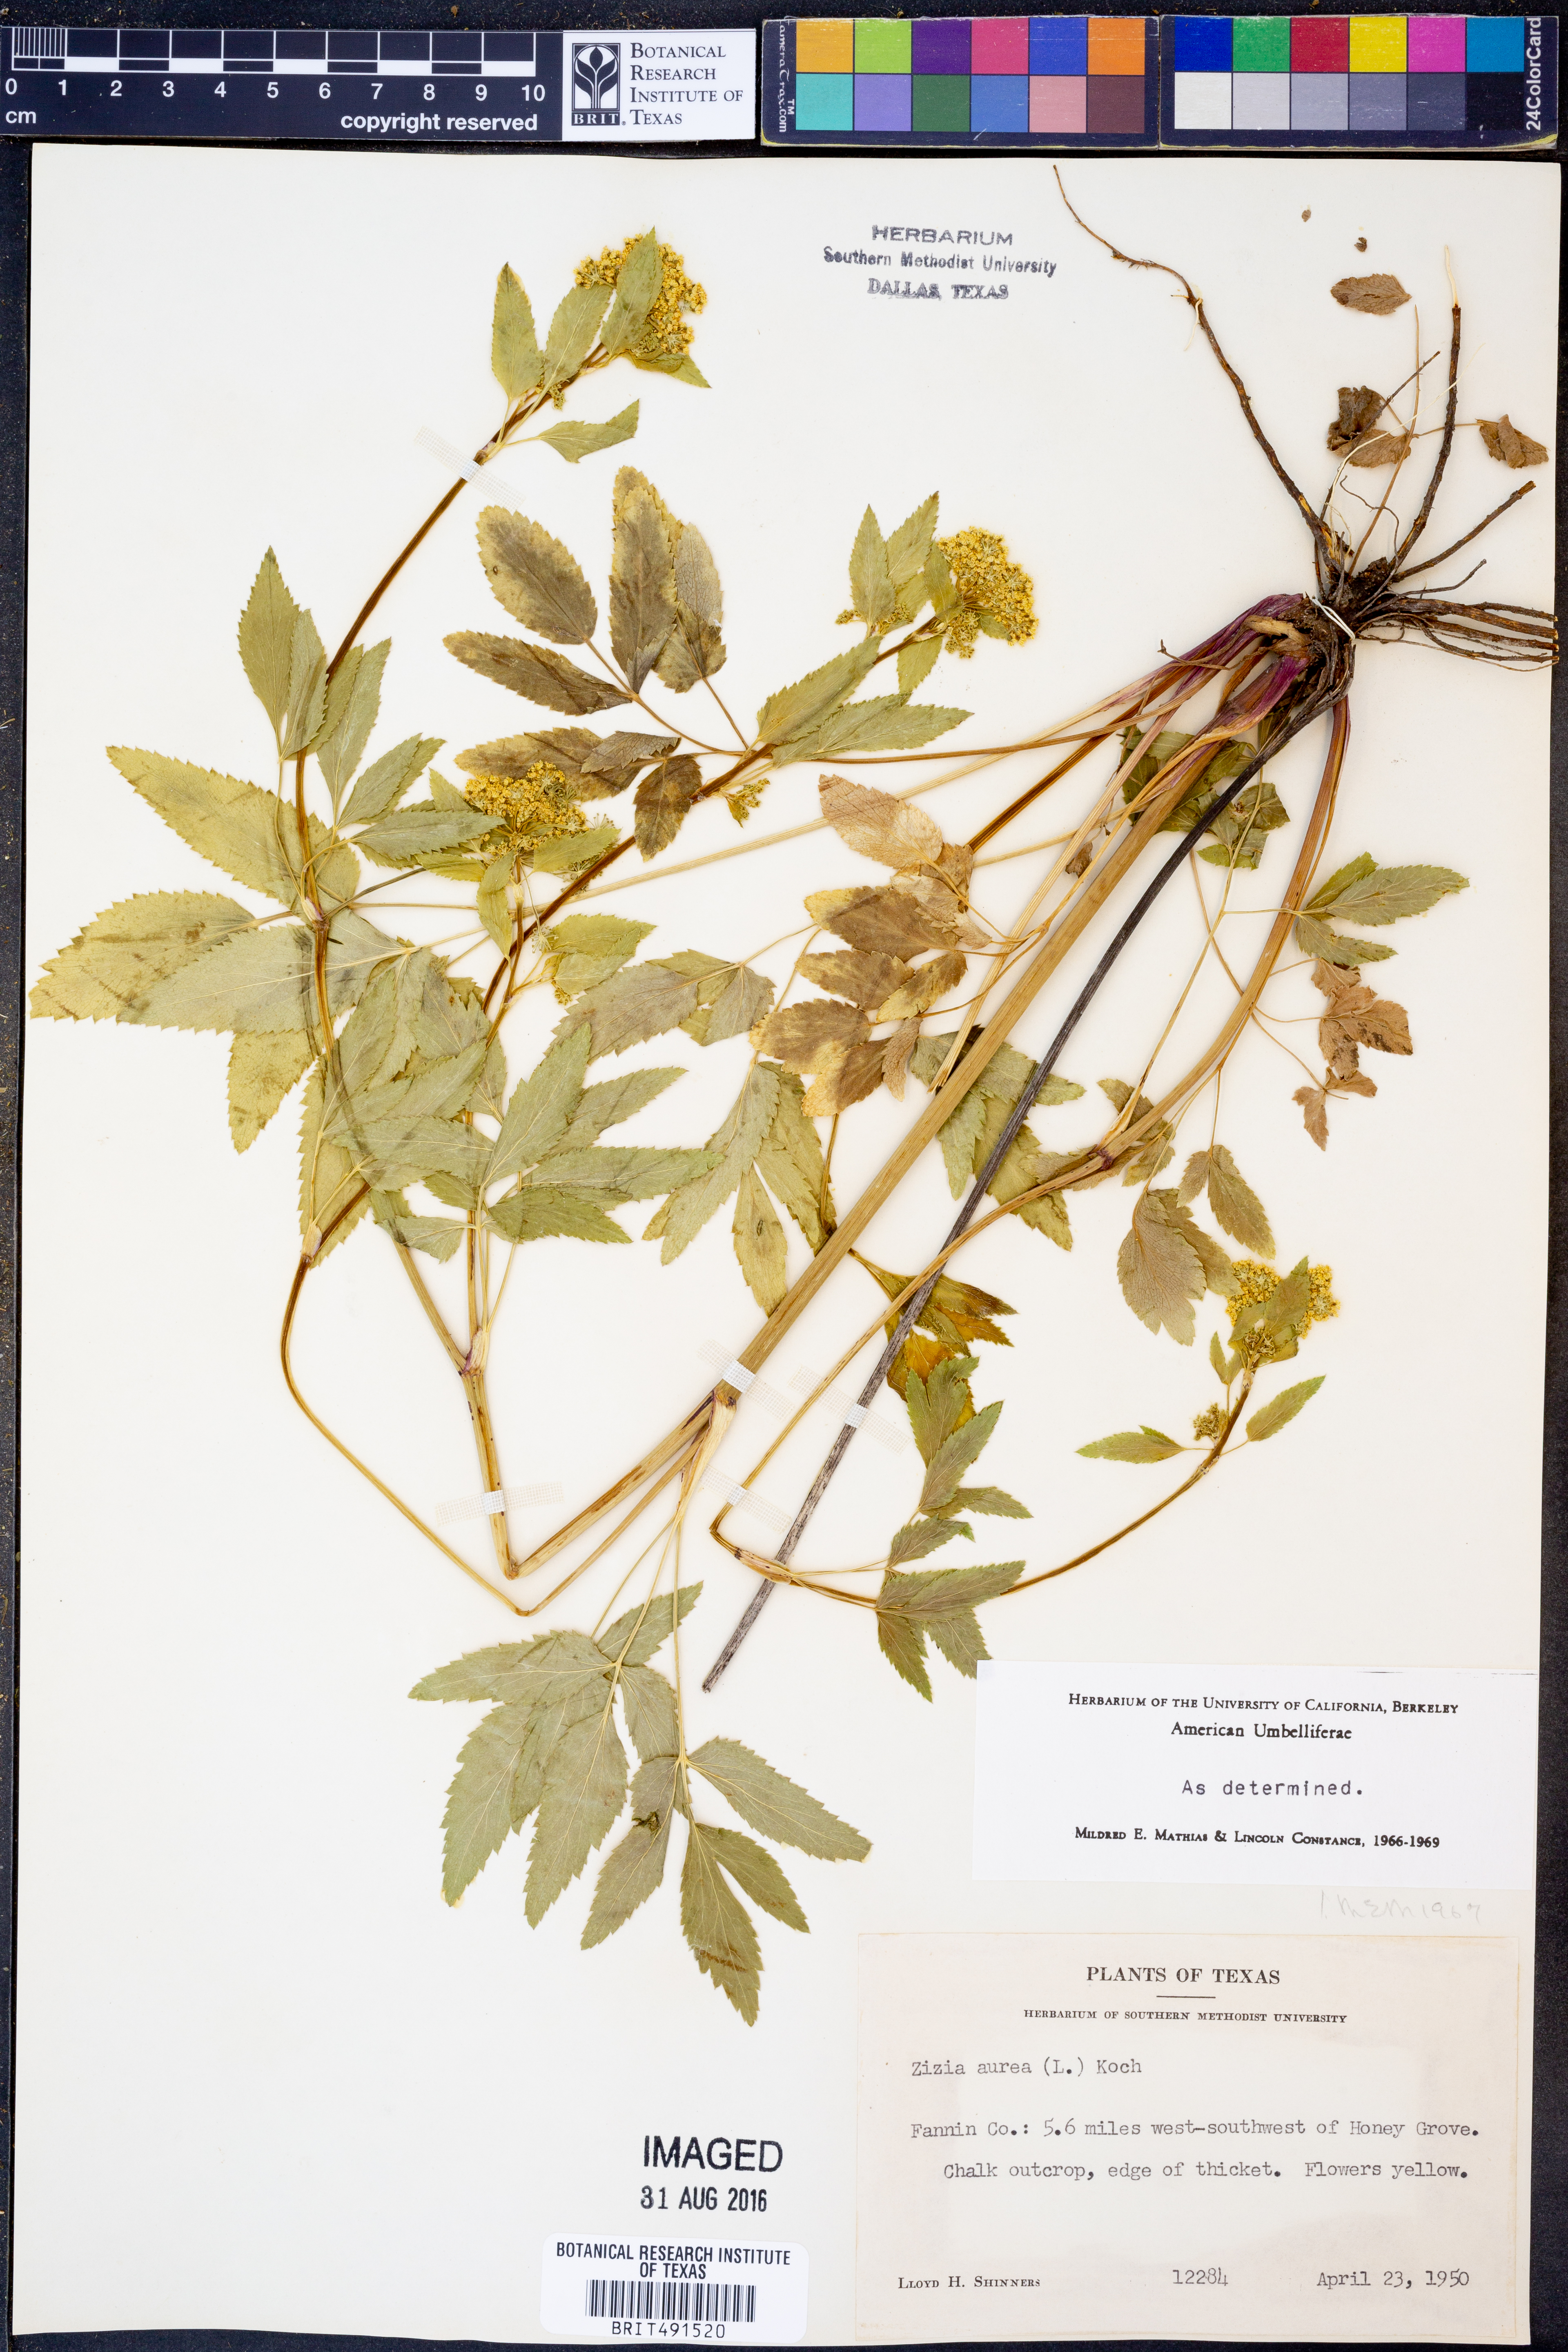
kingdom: Plantae
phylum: Tracheophyta
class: Magnoliopsida
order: Apiales
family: Apiaceae
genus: Zizia
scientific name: Zizia aurea
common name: Golden alexanders
